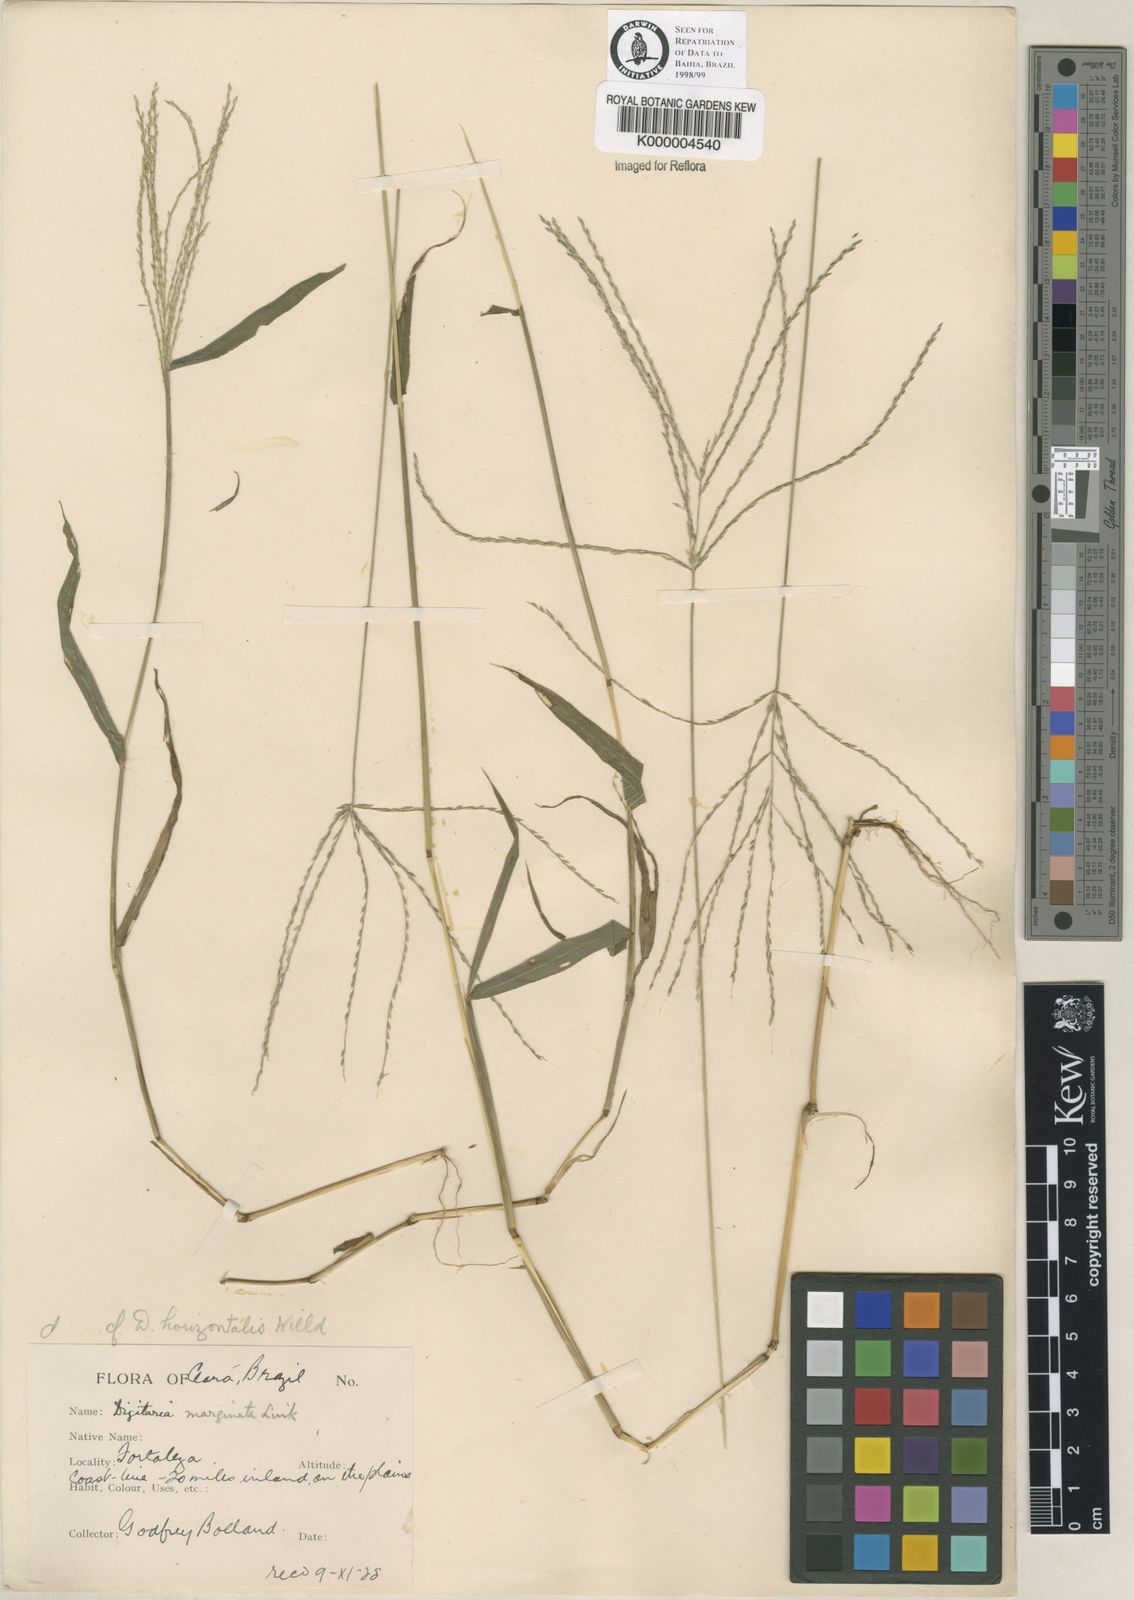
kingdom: Plantae
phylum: Tracheophyta
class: Liliopsida
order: Poales
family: Poaceae
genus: Digitaria
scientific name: Digitaria horizontalis
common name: Jamaican crabgrass
